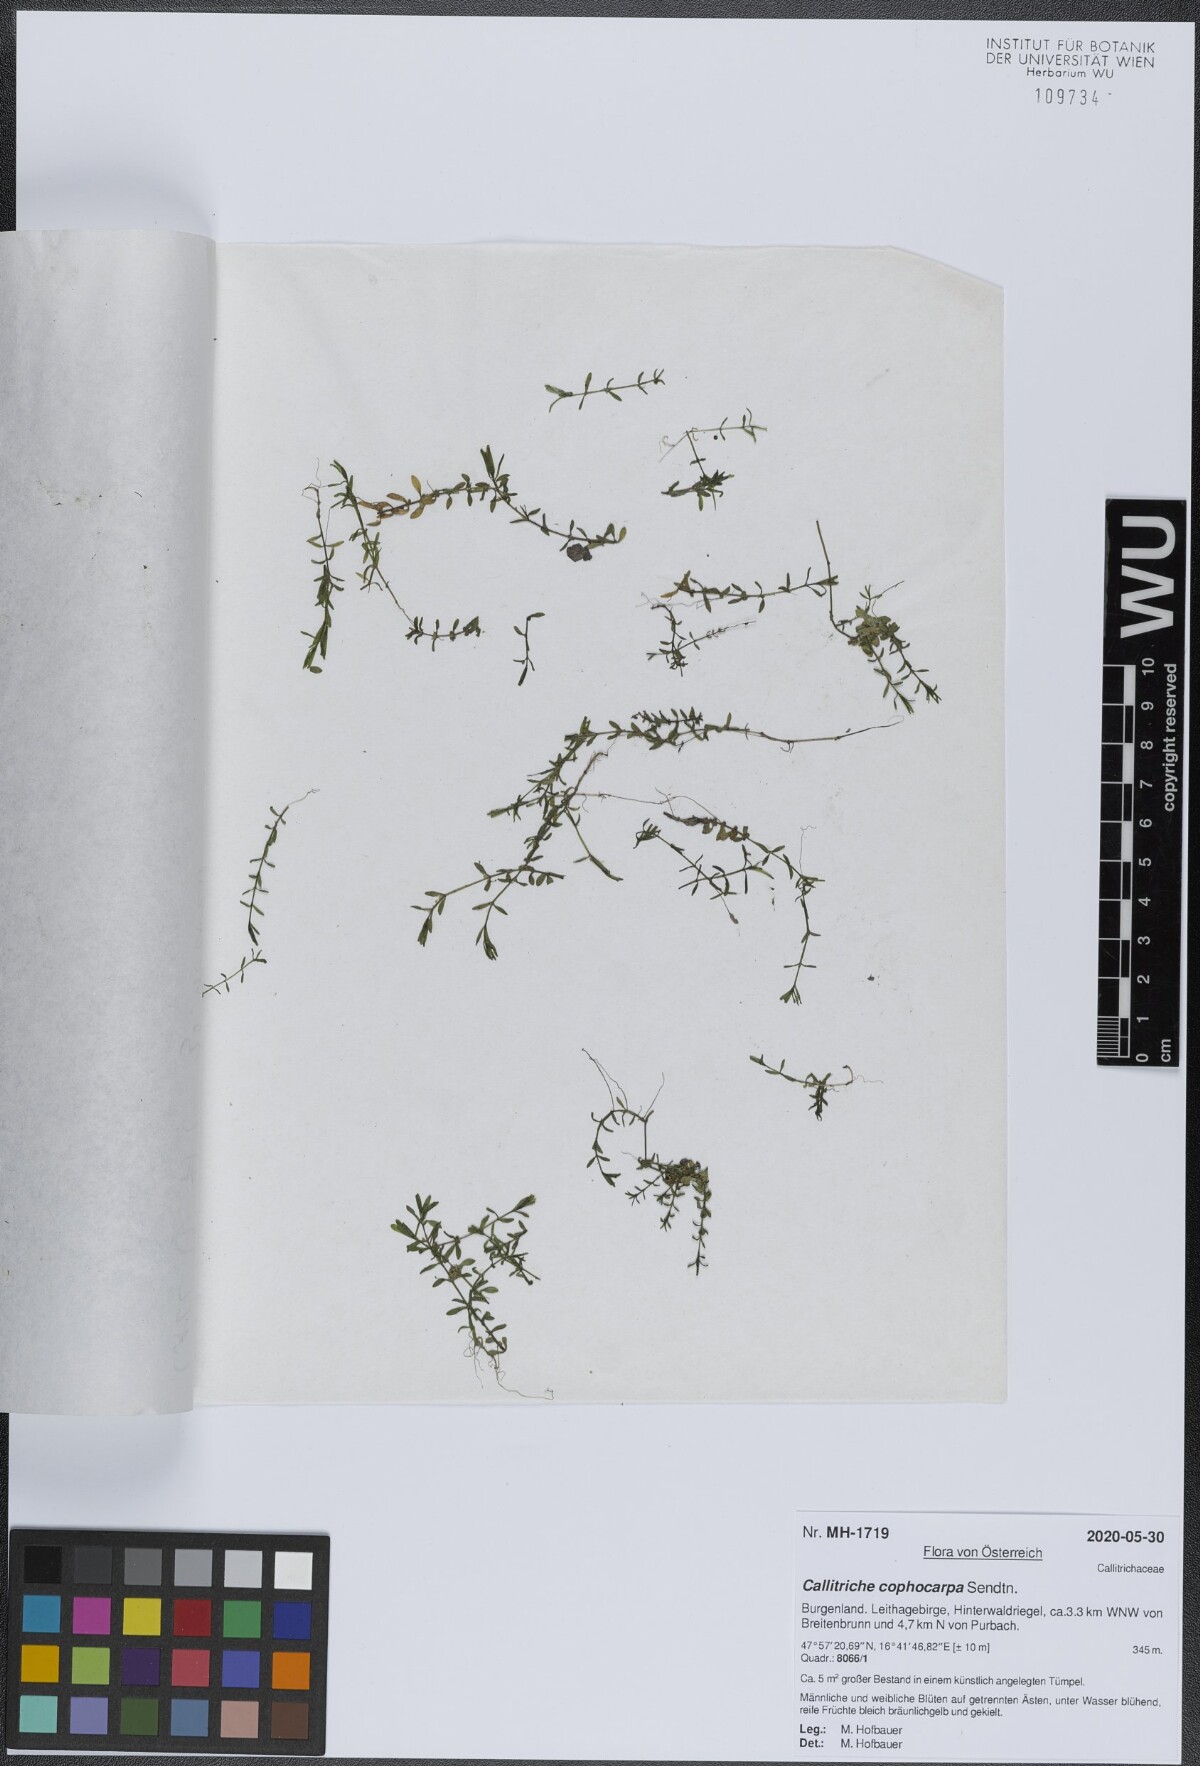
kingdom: Plantae
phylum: Tracheophyta
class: Magnoliopsida
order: Lamiales
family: Plantaginaceae
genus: Callitriche
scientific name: Callitriche cophocarpa
